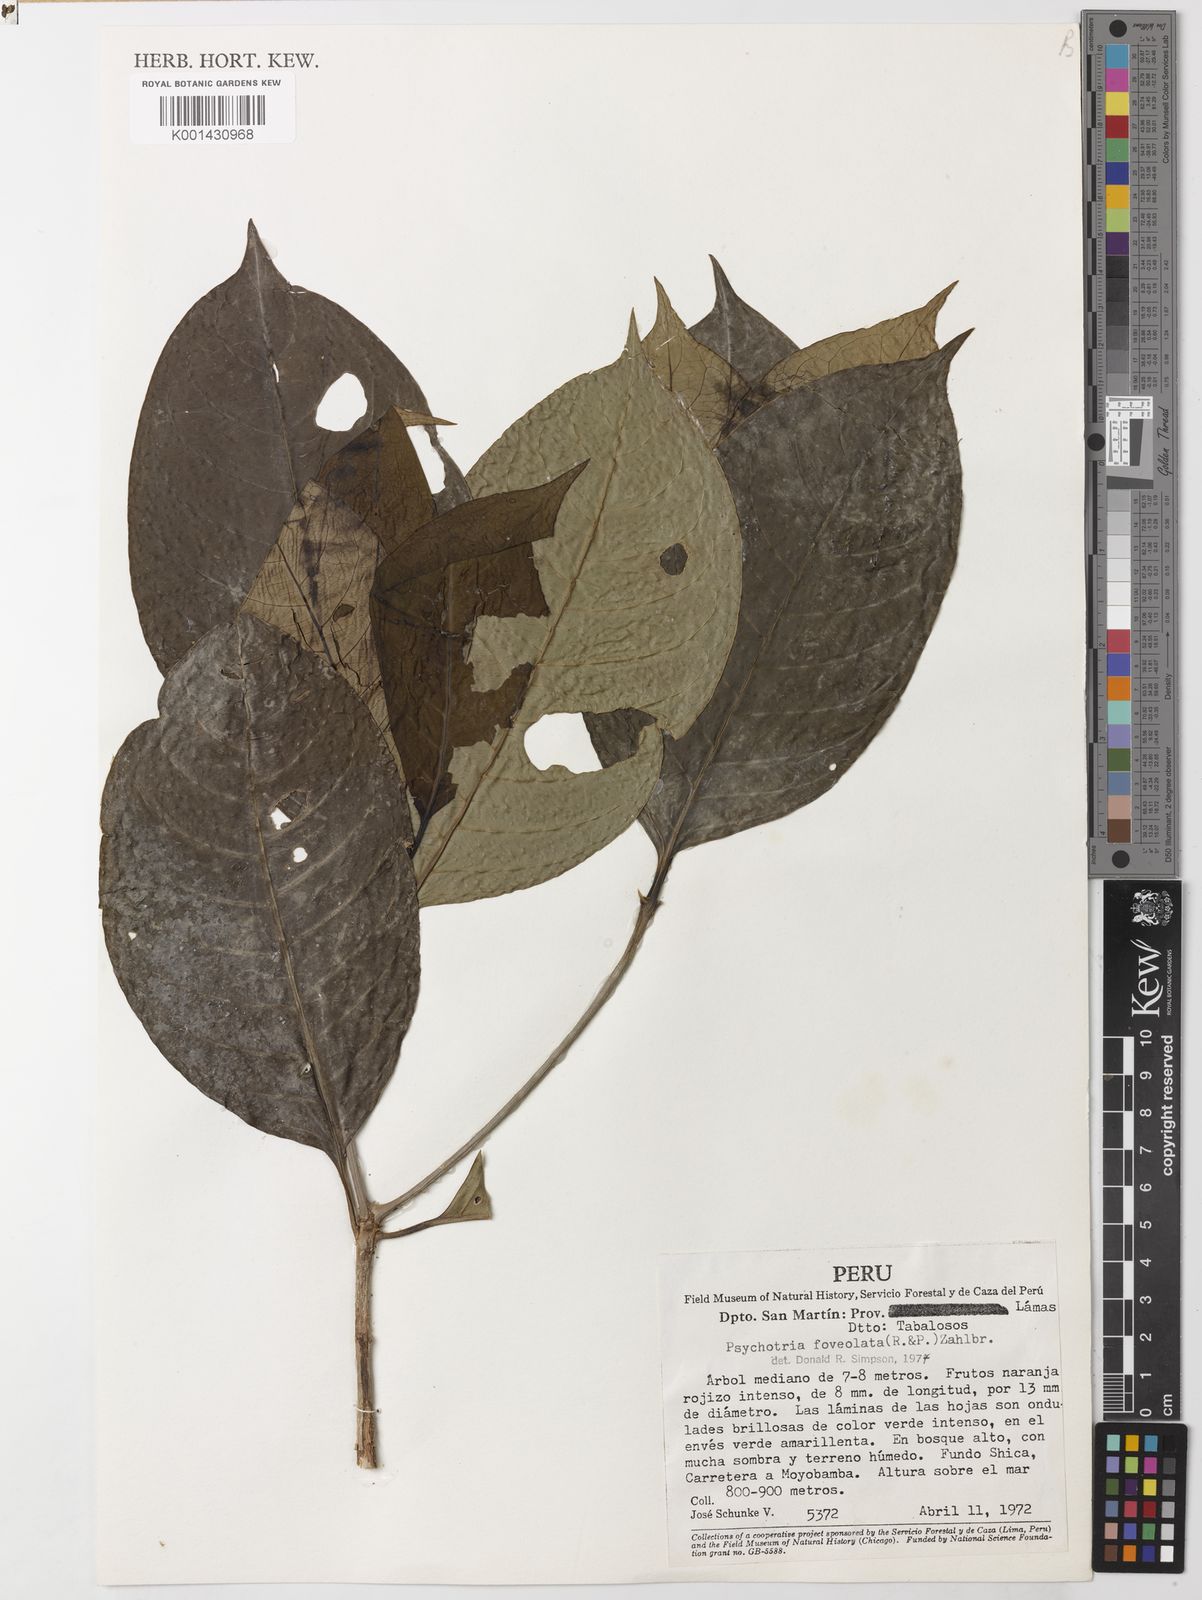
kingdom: Plantae
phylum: Tracheophyta
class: Magnoliopsida
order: Gentianales
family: Rubiaceae
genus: Psychotria
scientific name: Psychotria carthagenensis
